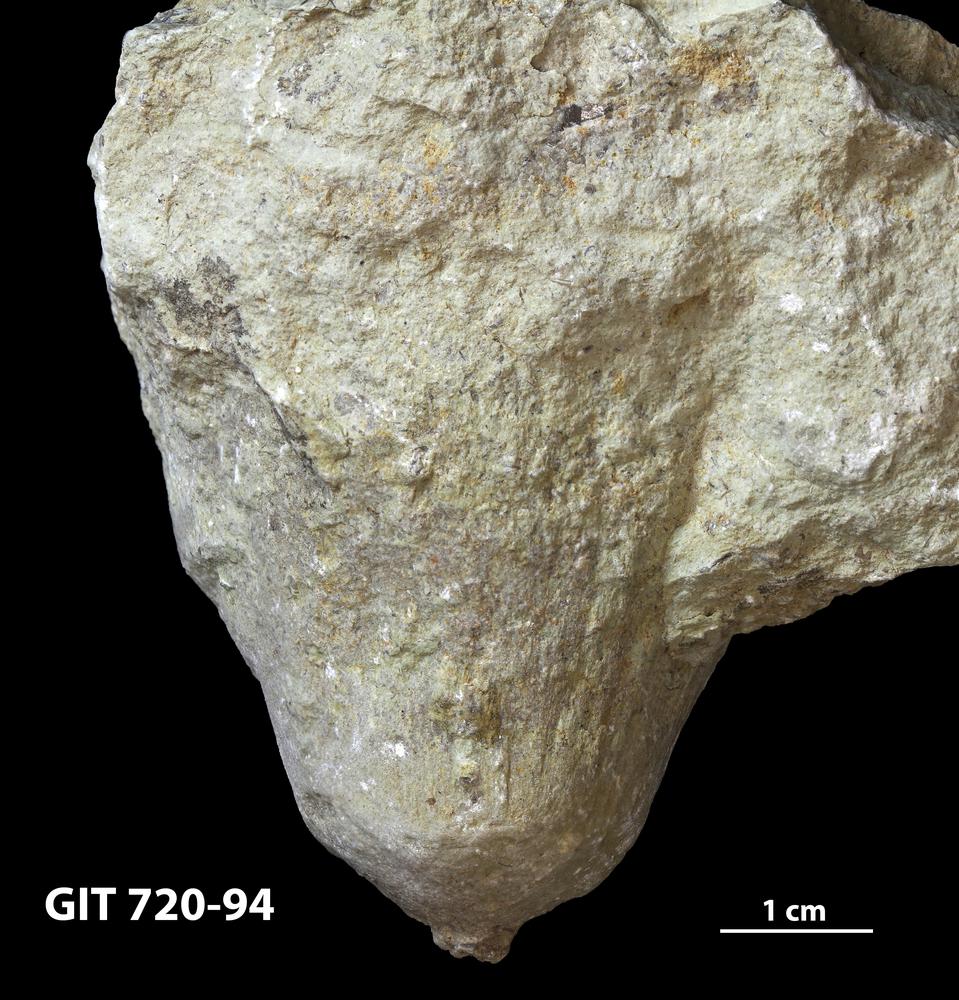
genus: Conichnus
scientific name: Conichnus
